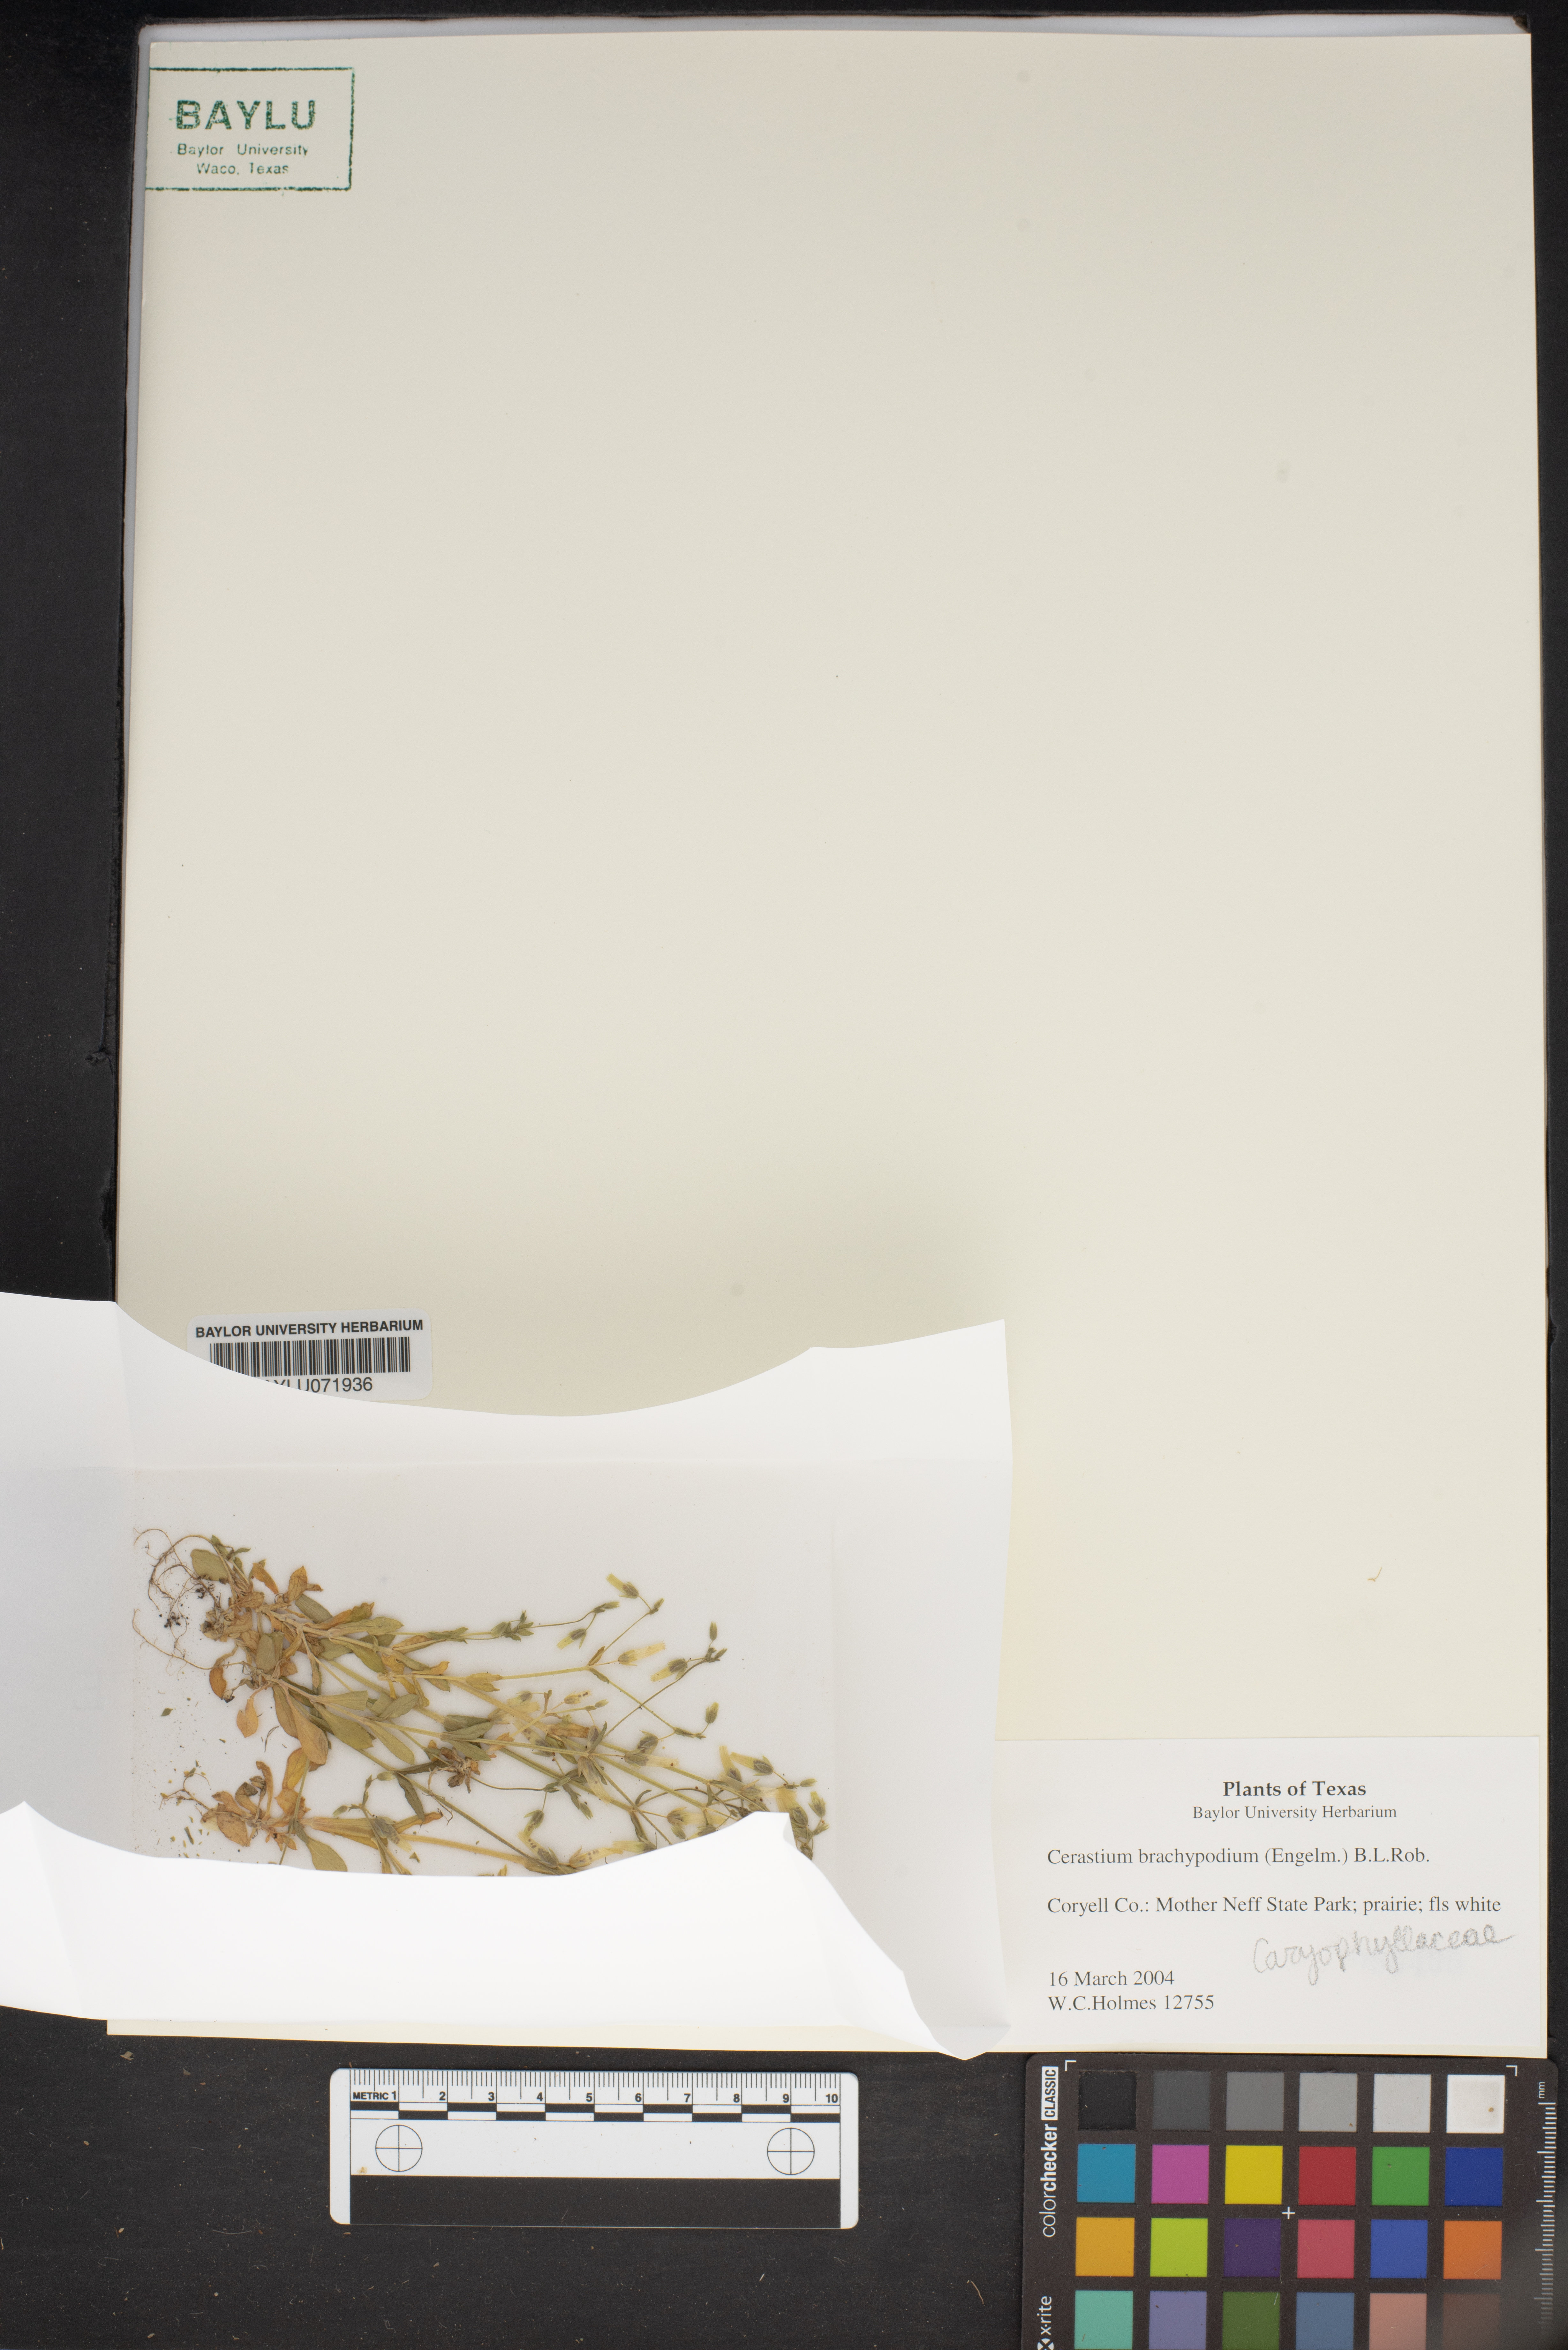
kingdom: Plantae
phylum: Tracheophyta
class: Magnoliopsida
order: Caryophyllales
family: Caryophyllaceae
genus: Cerastium
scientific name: Cerastium brachypodum
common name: Short-pedicelled nodding chickweed
